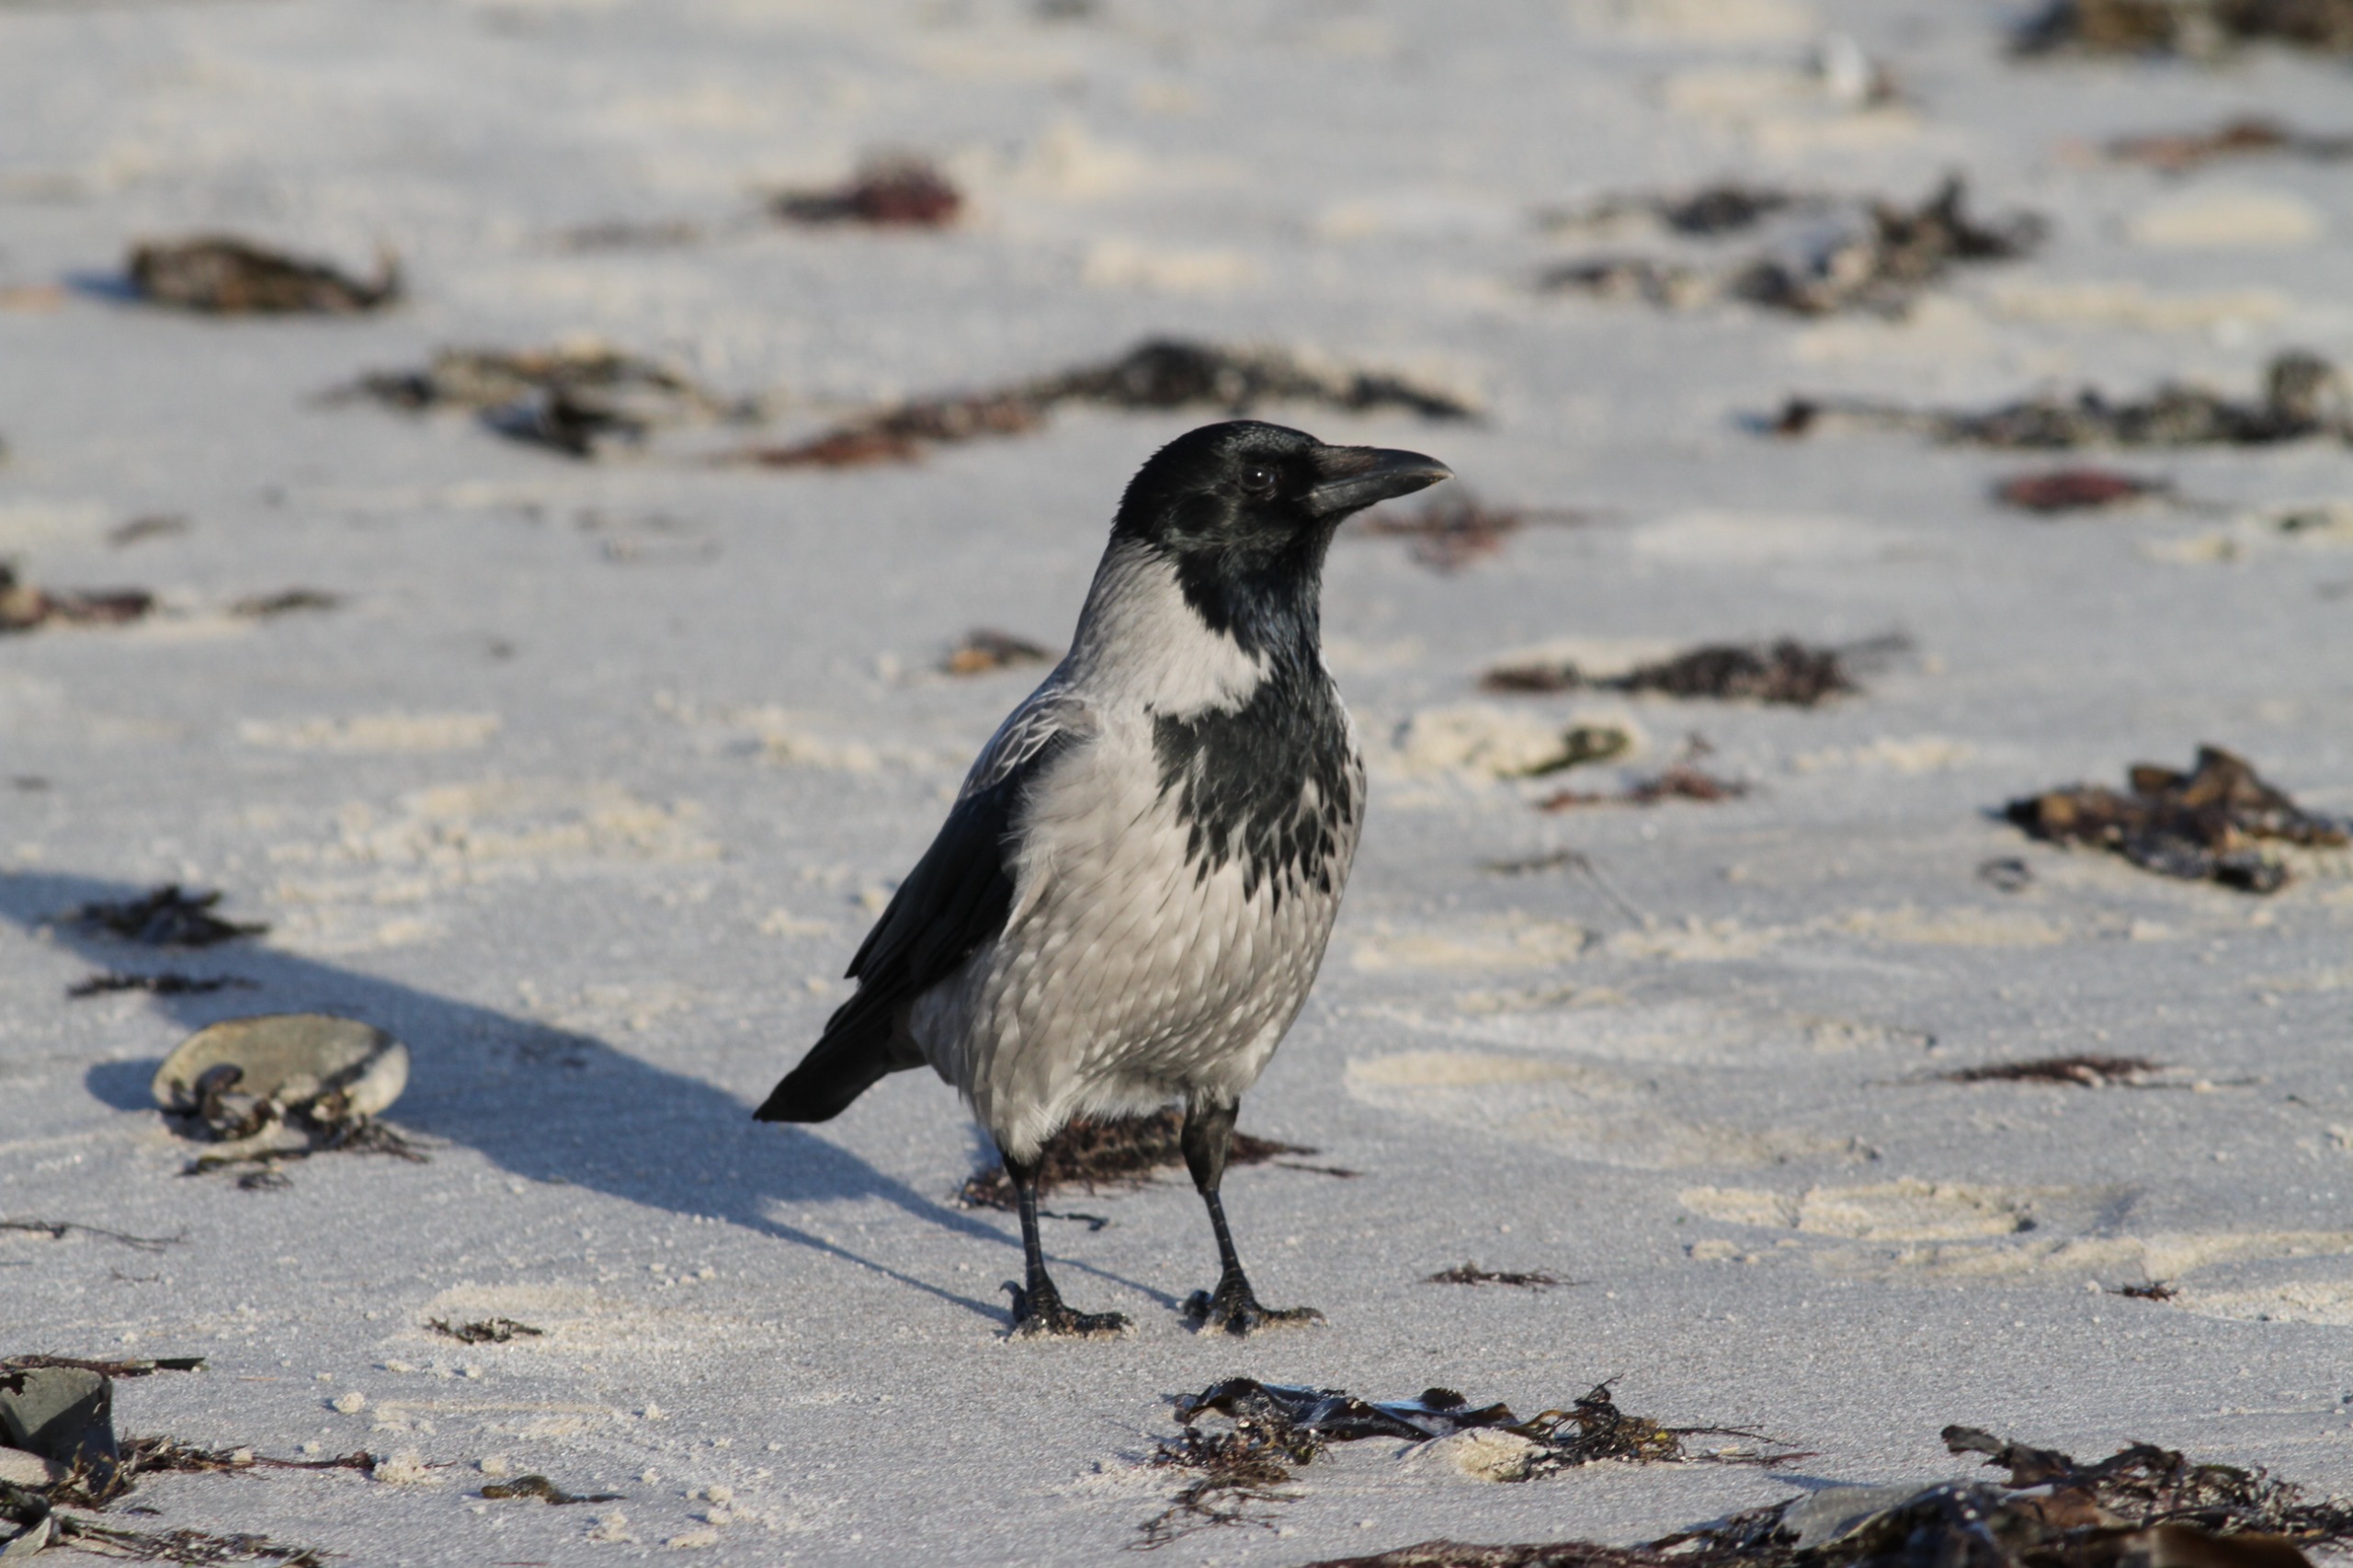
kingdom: Animalia
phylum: Chordata
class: Aves
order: Passeriformes
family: Corvidae
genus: Corvus
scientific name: Corvus cornix
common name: Gråkrage
